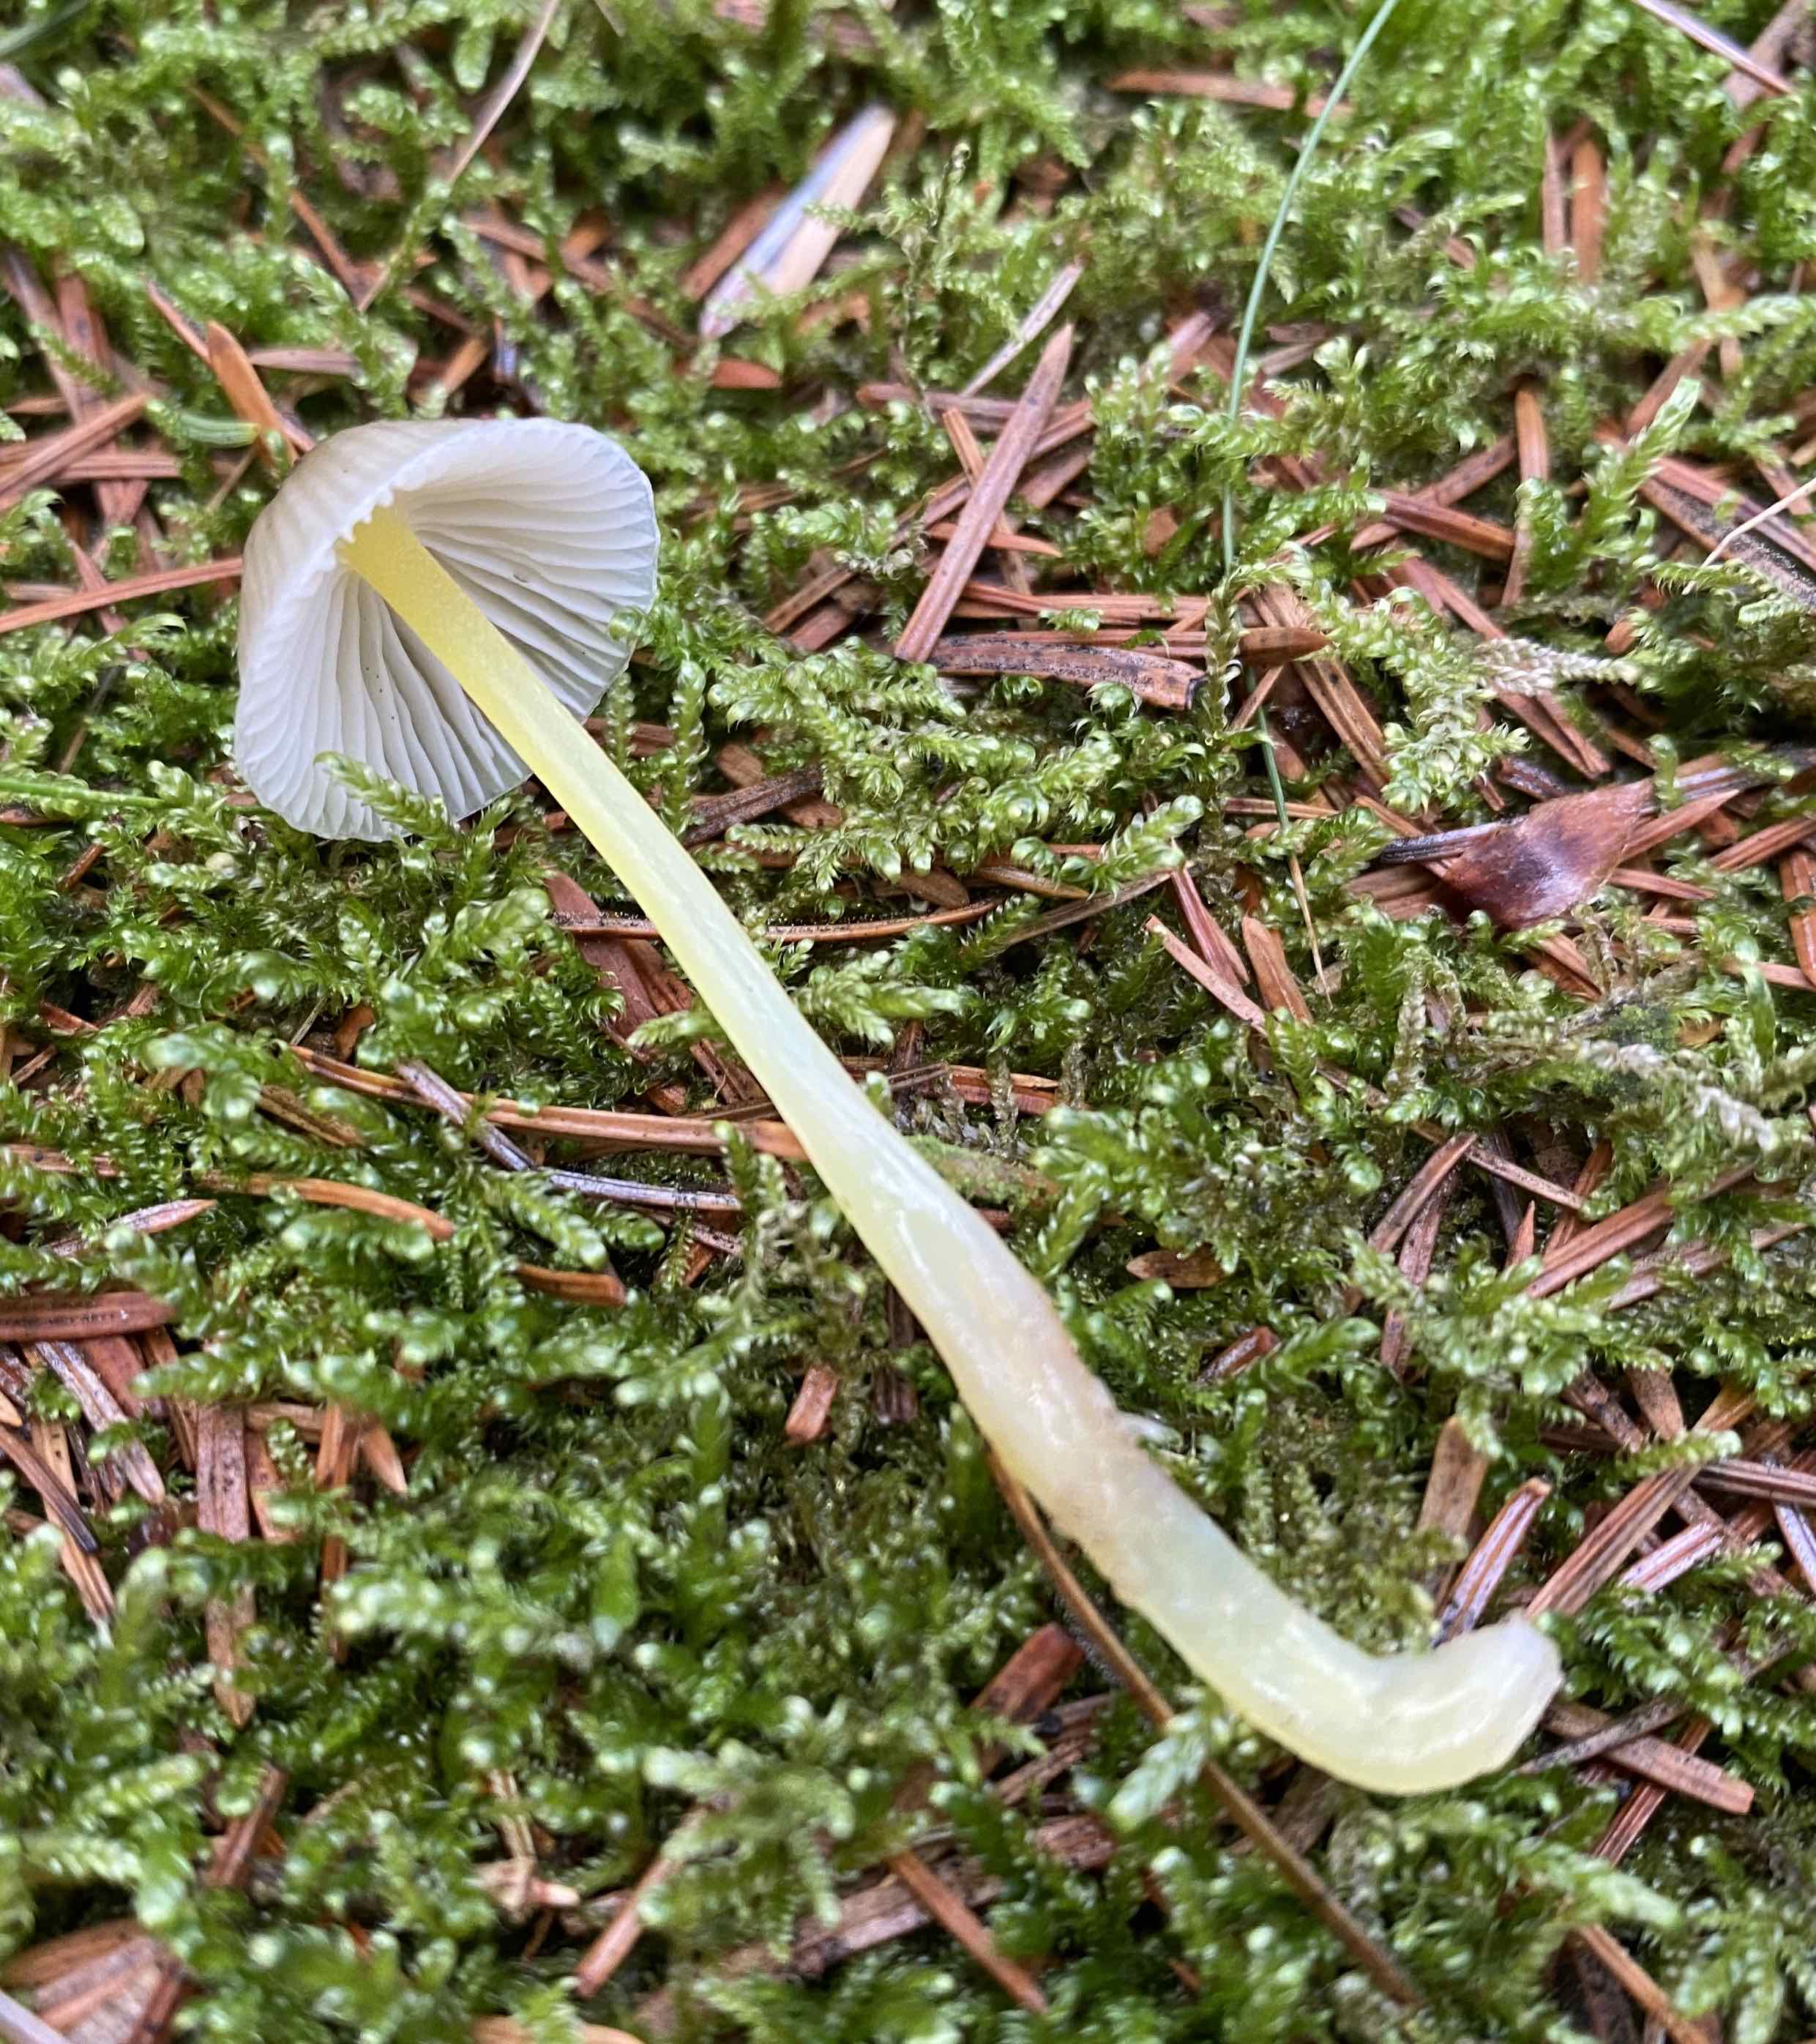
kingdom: Fungi
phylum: Basidiomycota
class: Agaricomycetes
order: Agaricales
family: Mycenaceae
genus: Mycena
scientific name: Mycena epipterygia
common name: gulstokket huesvamp
